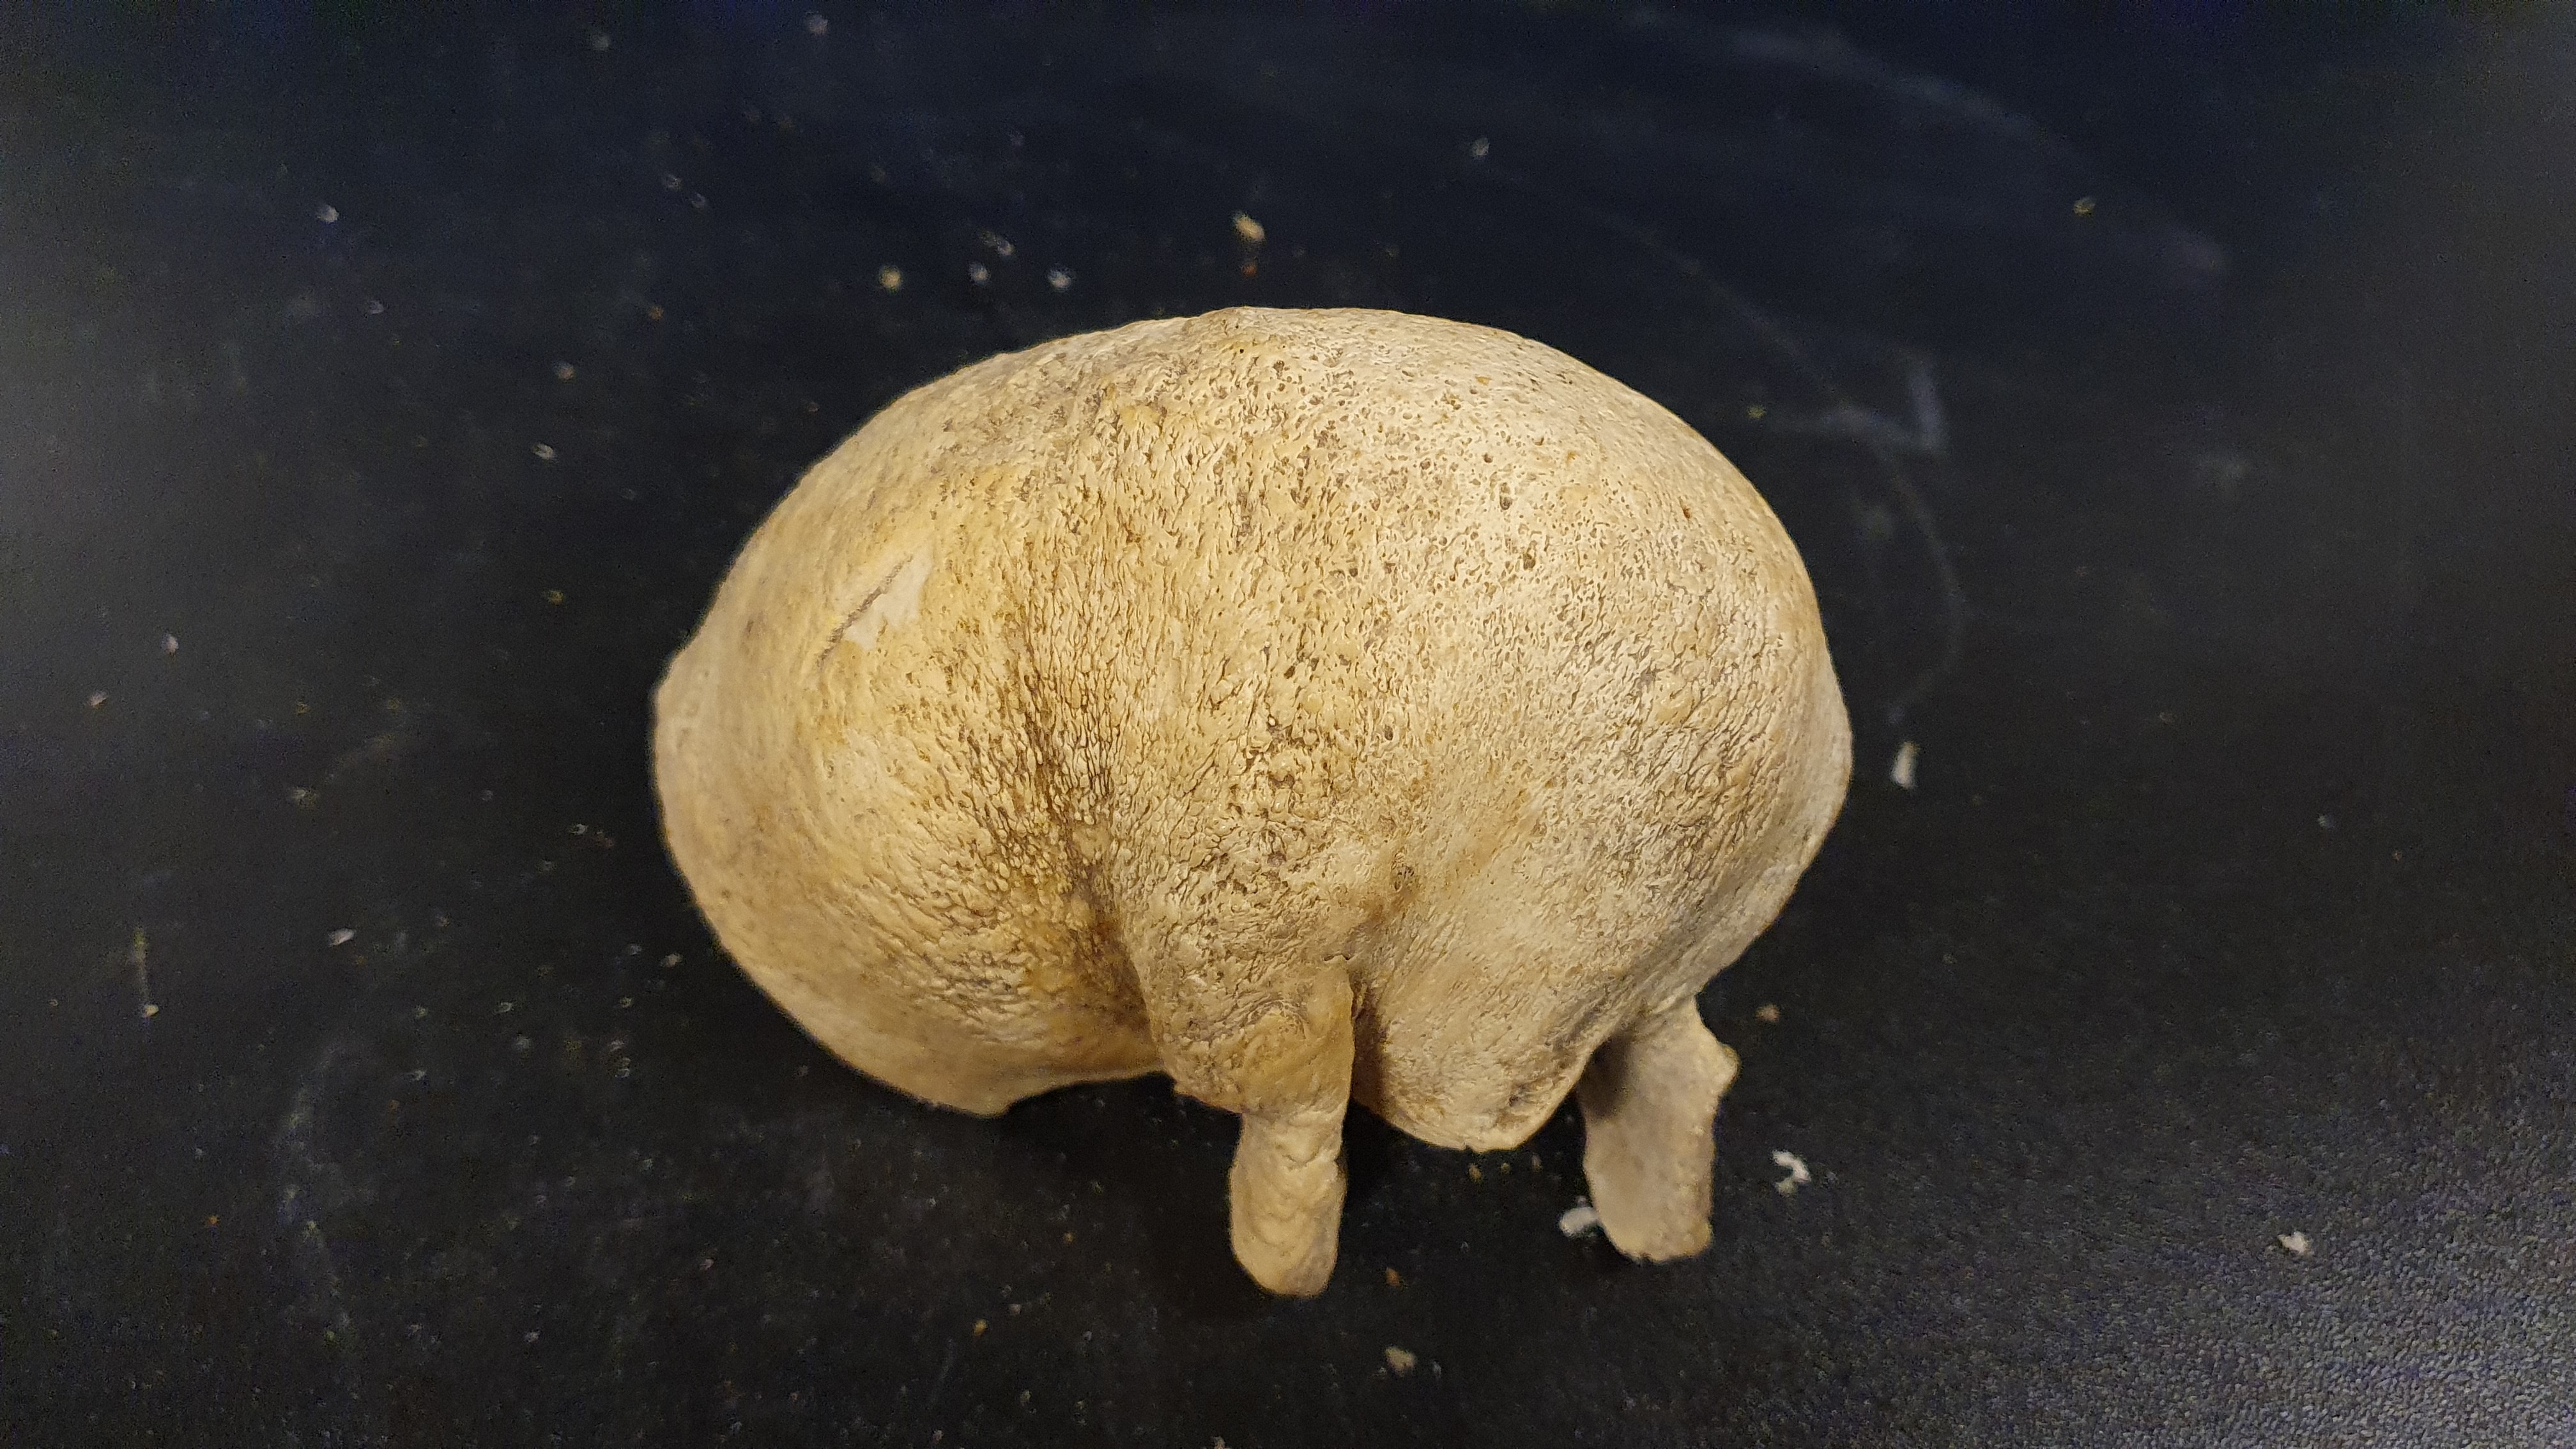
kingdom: Animalia
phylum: Chordata
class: Mammalia
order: Cetacea
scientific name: Cetacea
